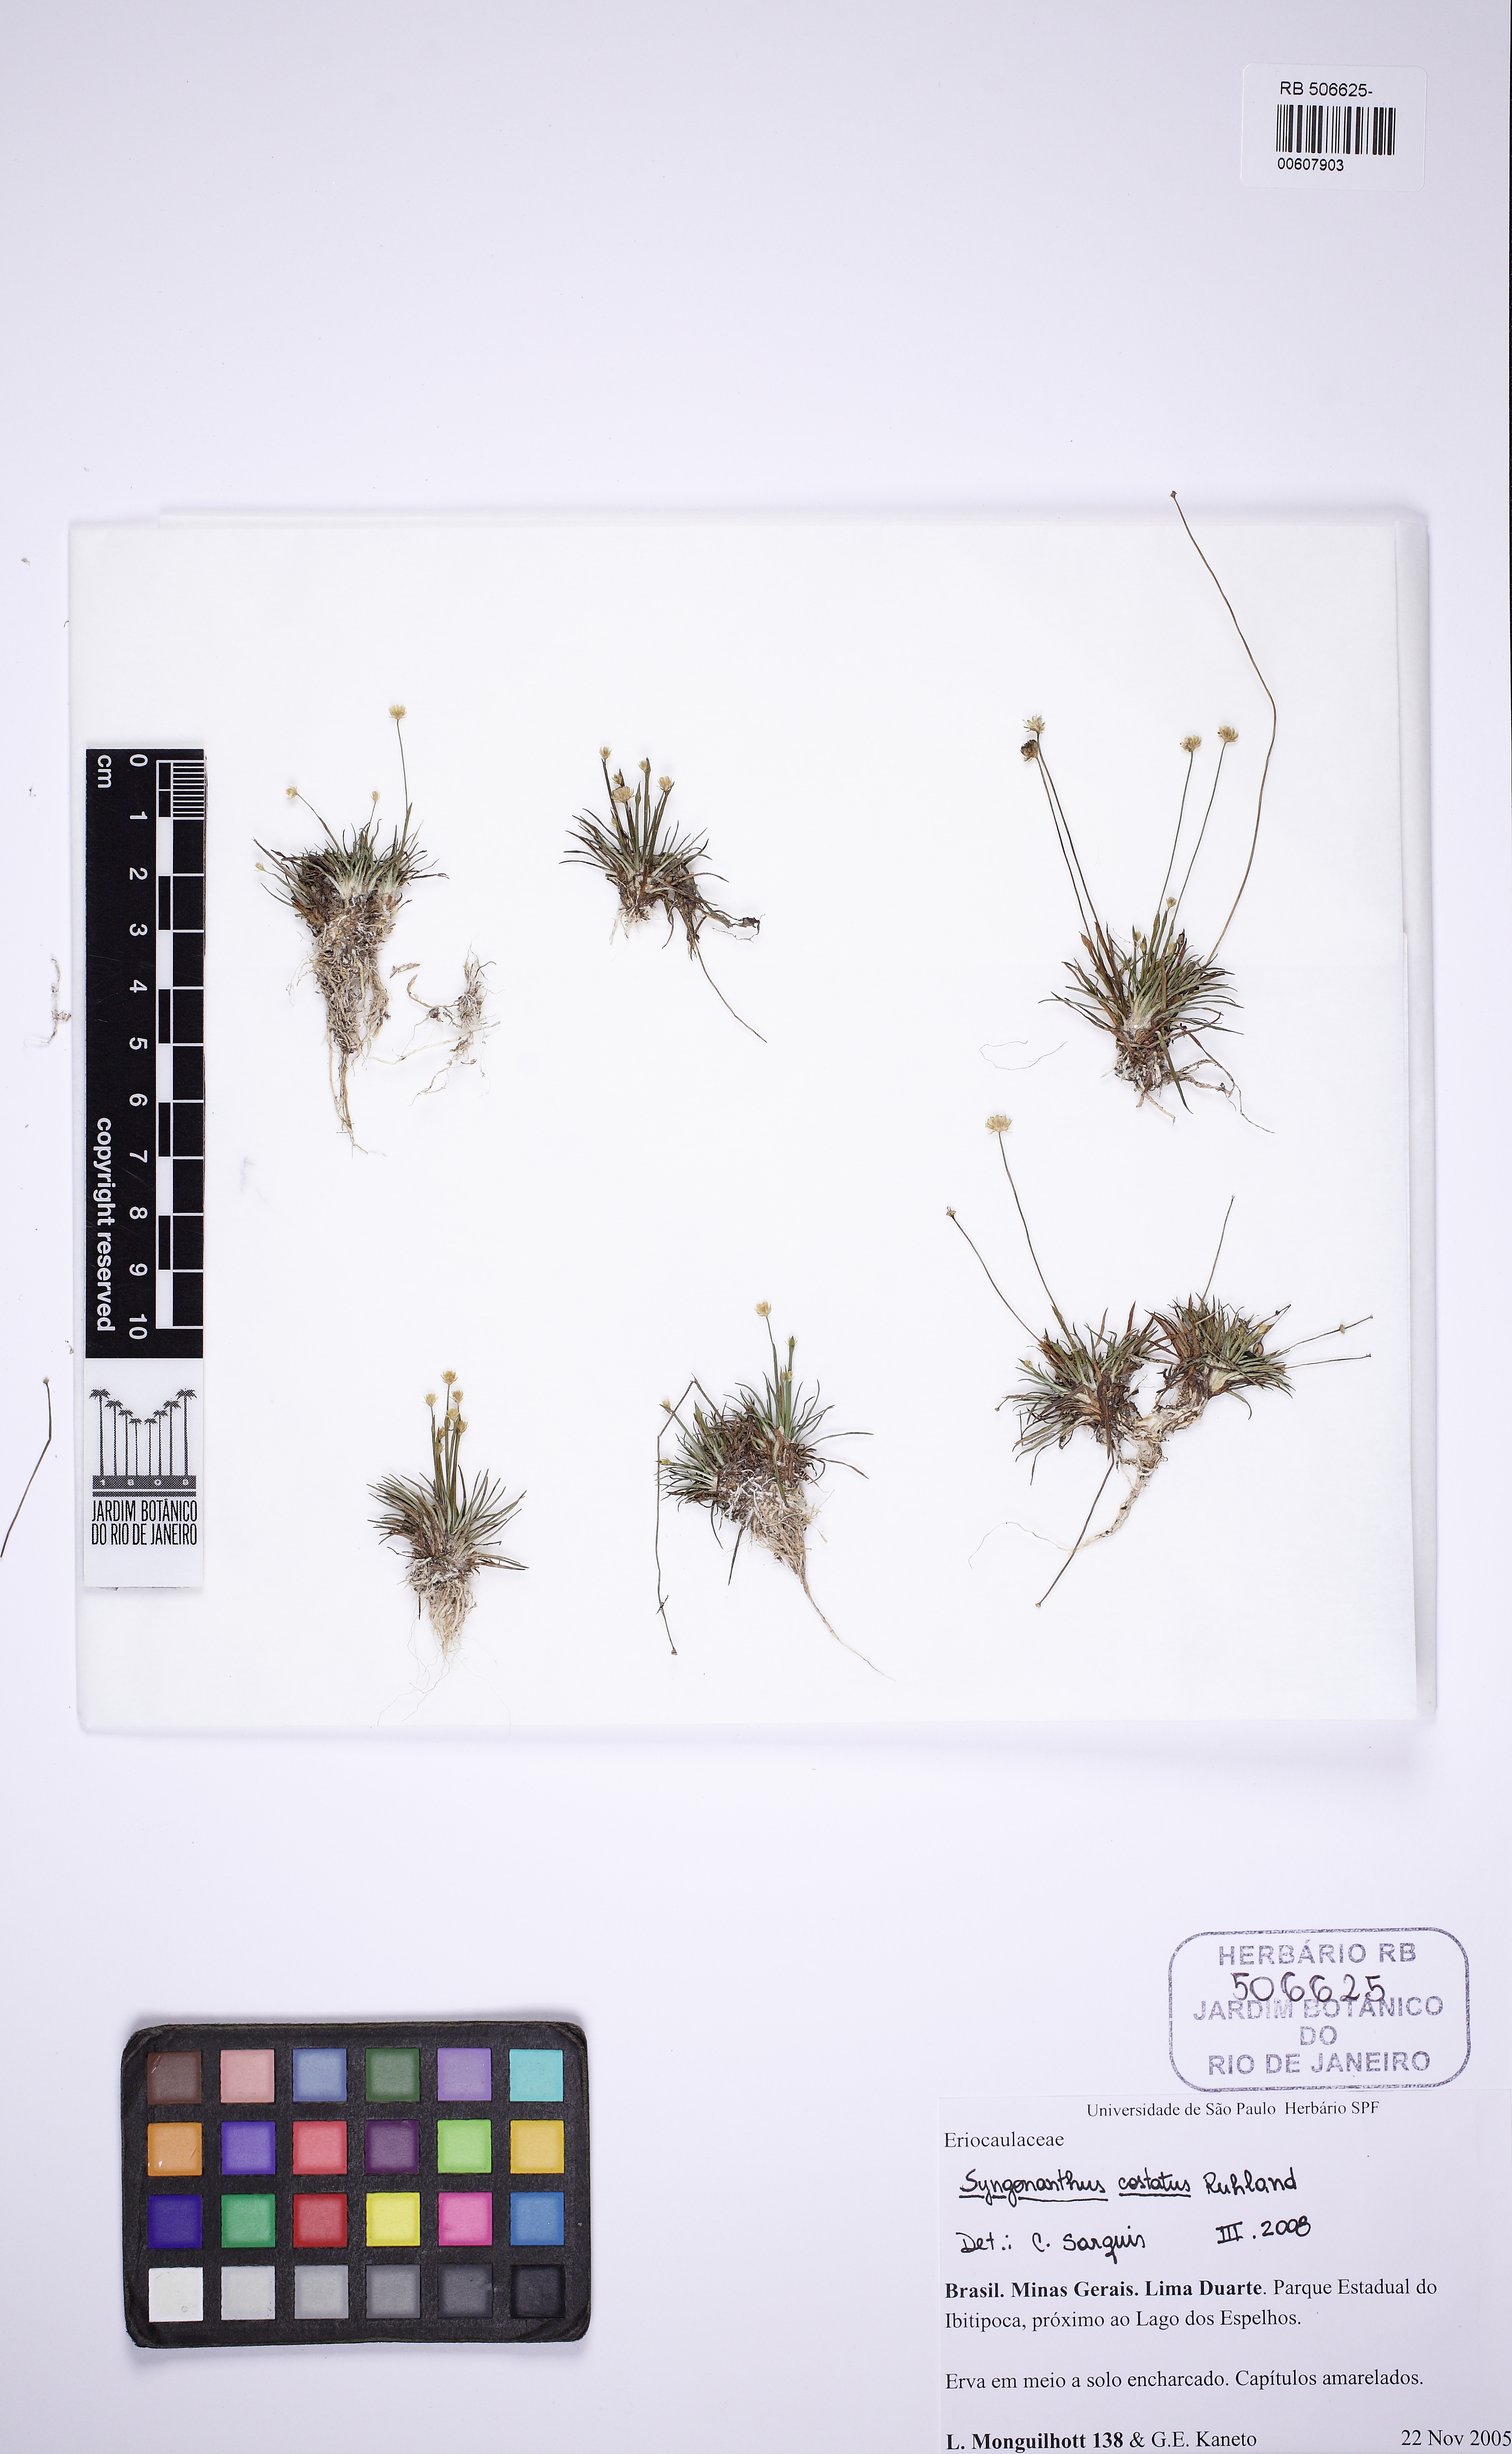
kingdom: Plantae
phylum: Tracheophyta
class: Liliopsida
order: Poales
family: Eriocaulaceae
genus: Syngonanthus
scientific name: Syngonanthus costatus
